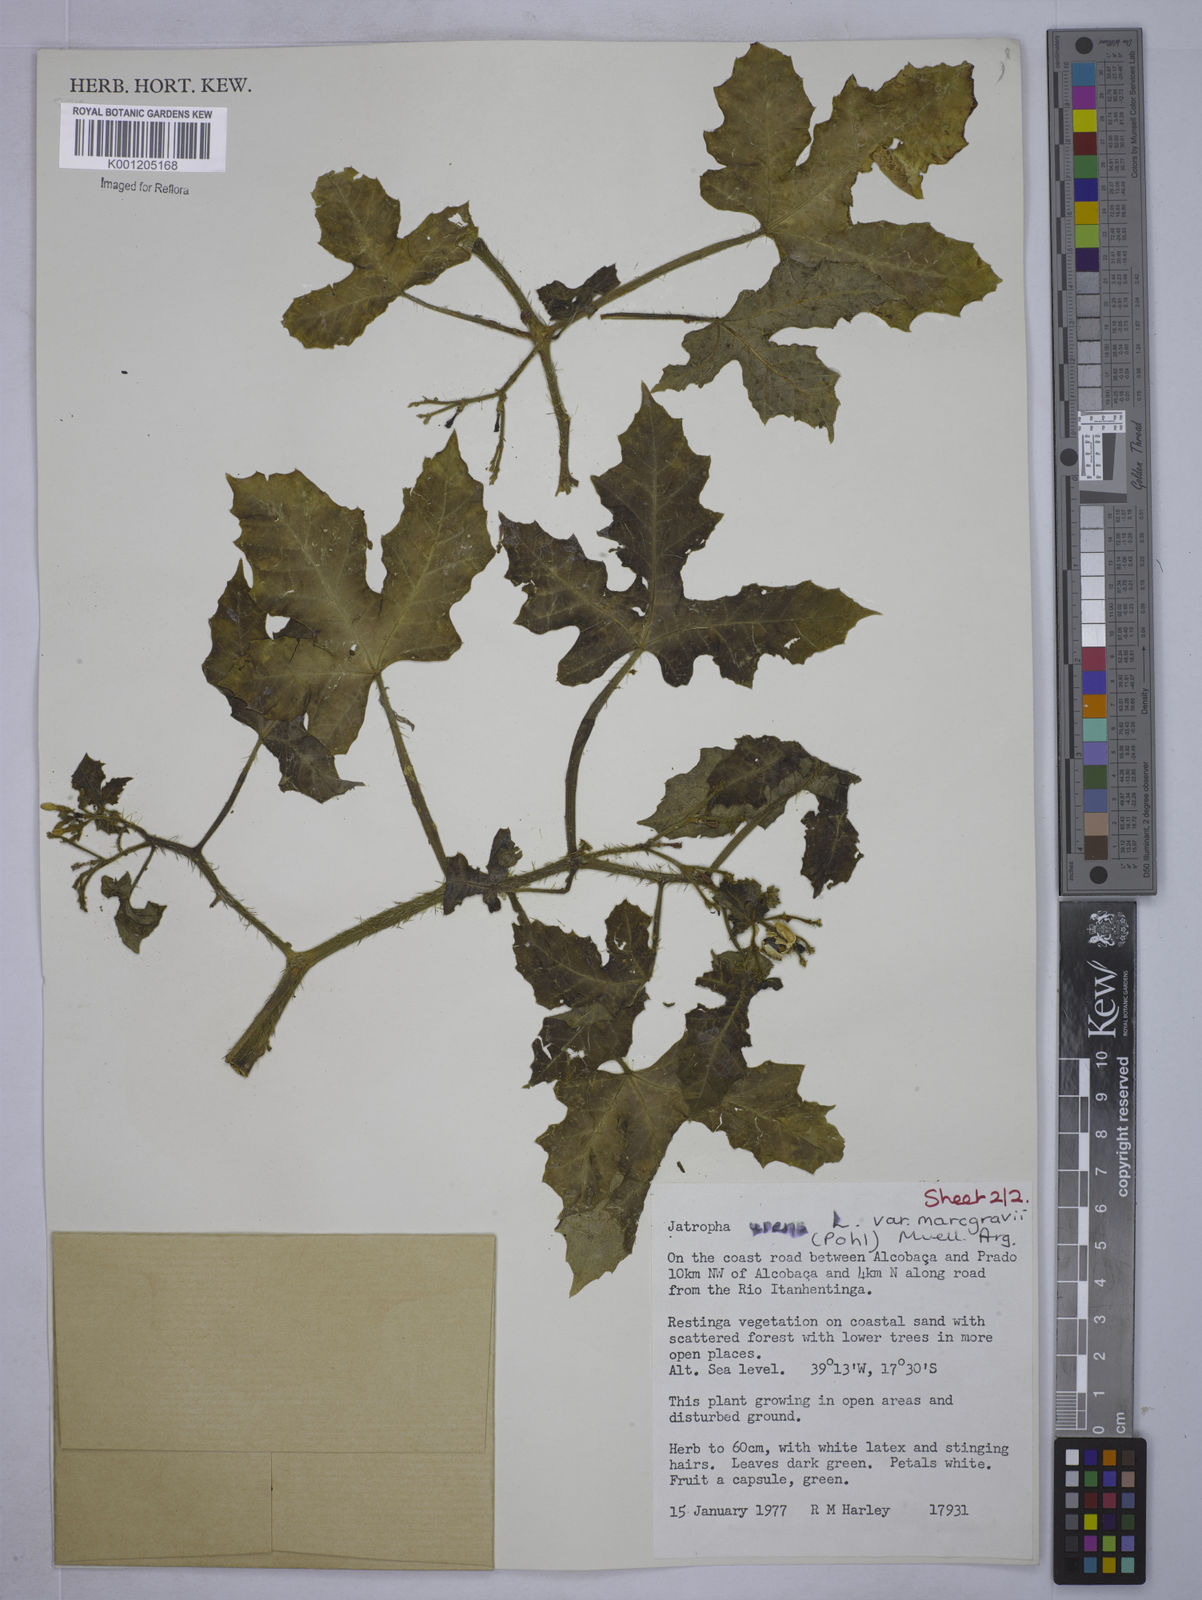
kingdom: Plantae
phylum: Tracheophyta
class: Magnoliopsida
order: Malpighiales
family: Euphorbiaceae
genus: Cnidoscolus
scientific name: Cnidoscolus urens
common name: Bull-nettle
